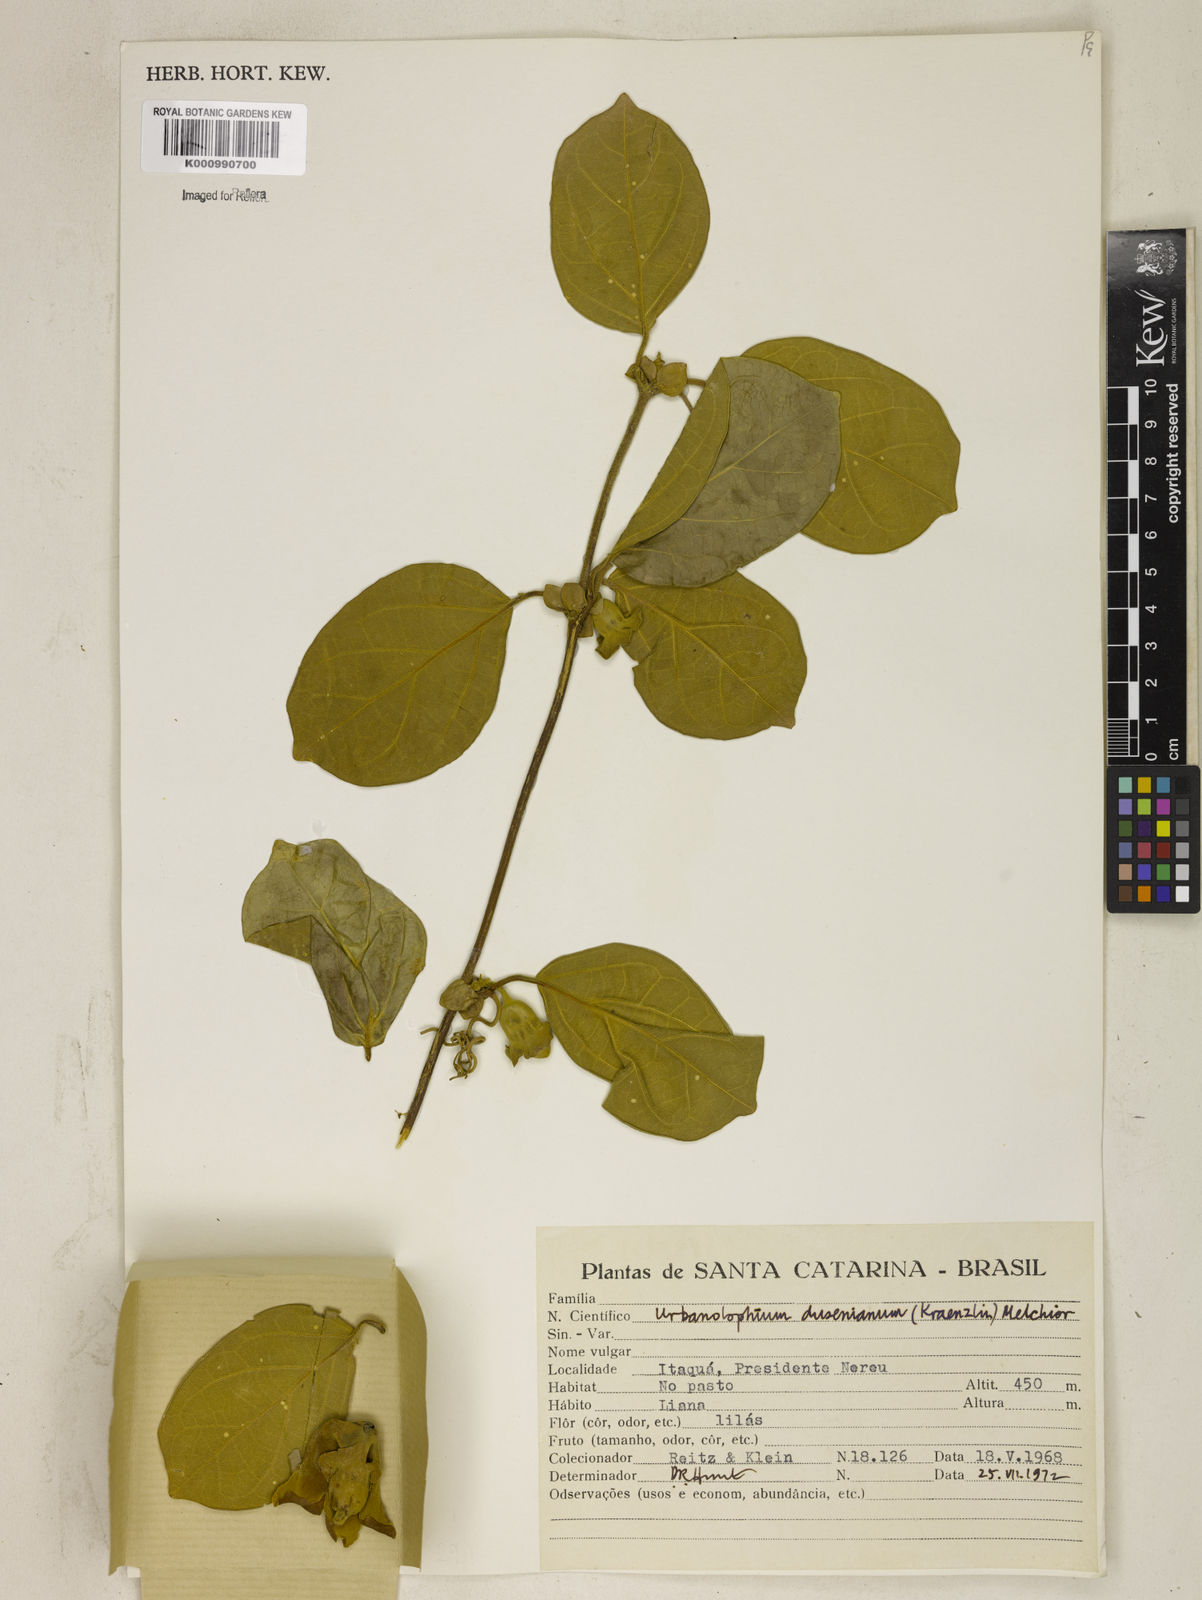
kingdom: Plantae
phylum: Tracheophyta
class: Magnoliopsida
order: Lamiales
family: Bignoniaceae
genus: Amphilophium
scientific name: Amphilophium dusenianum
